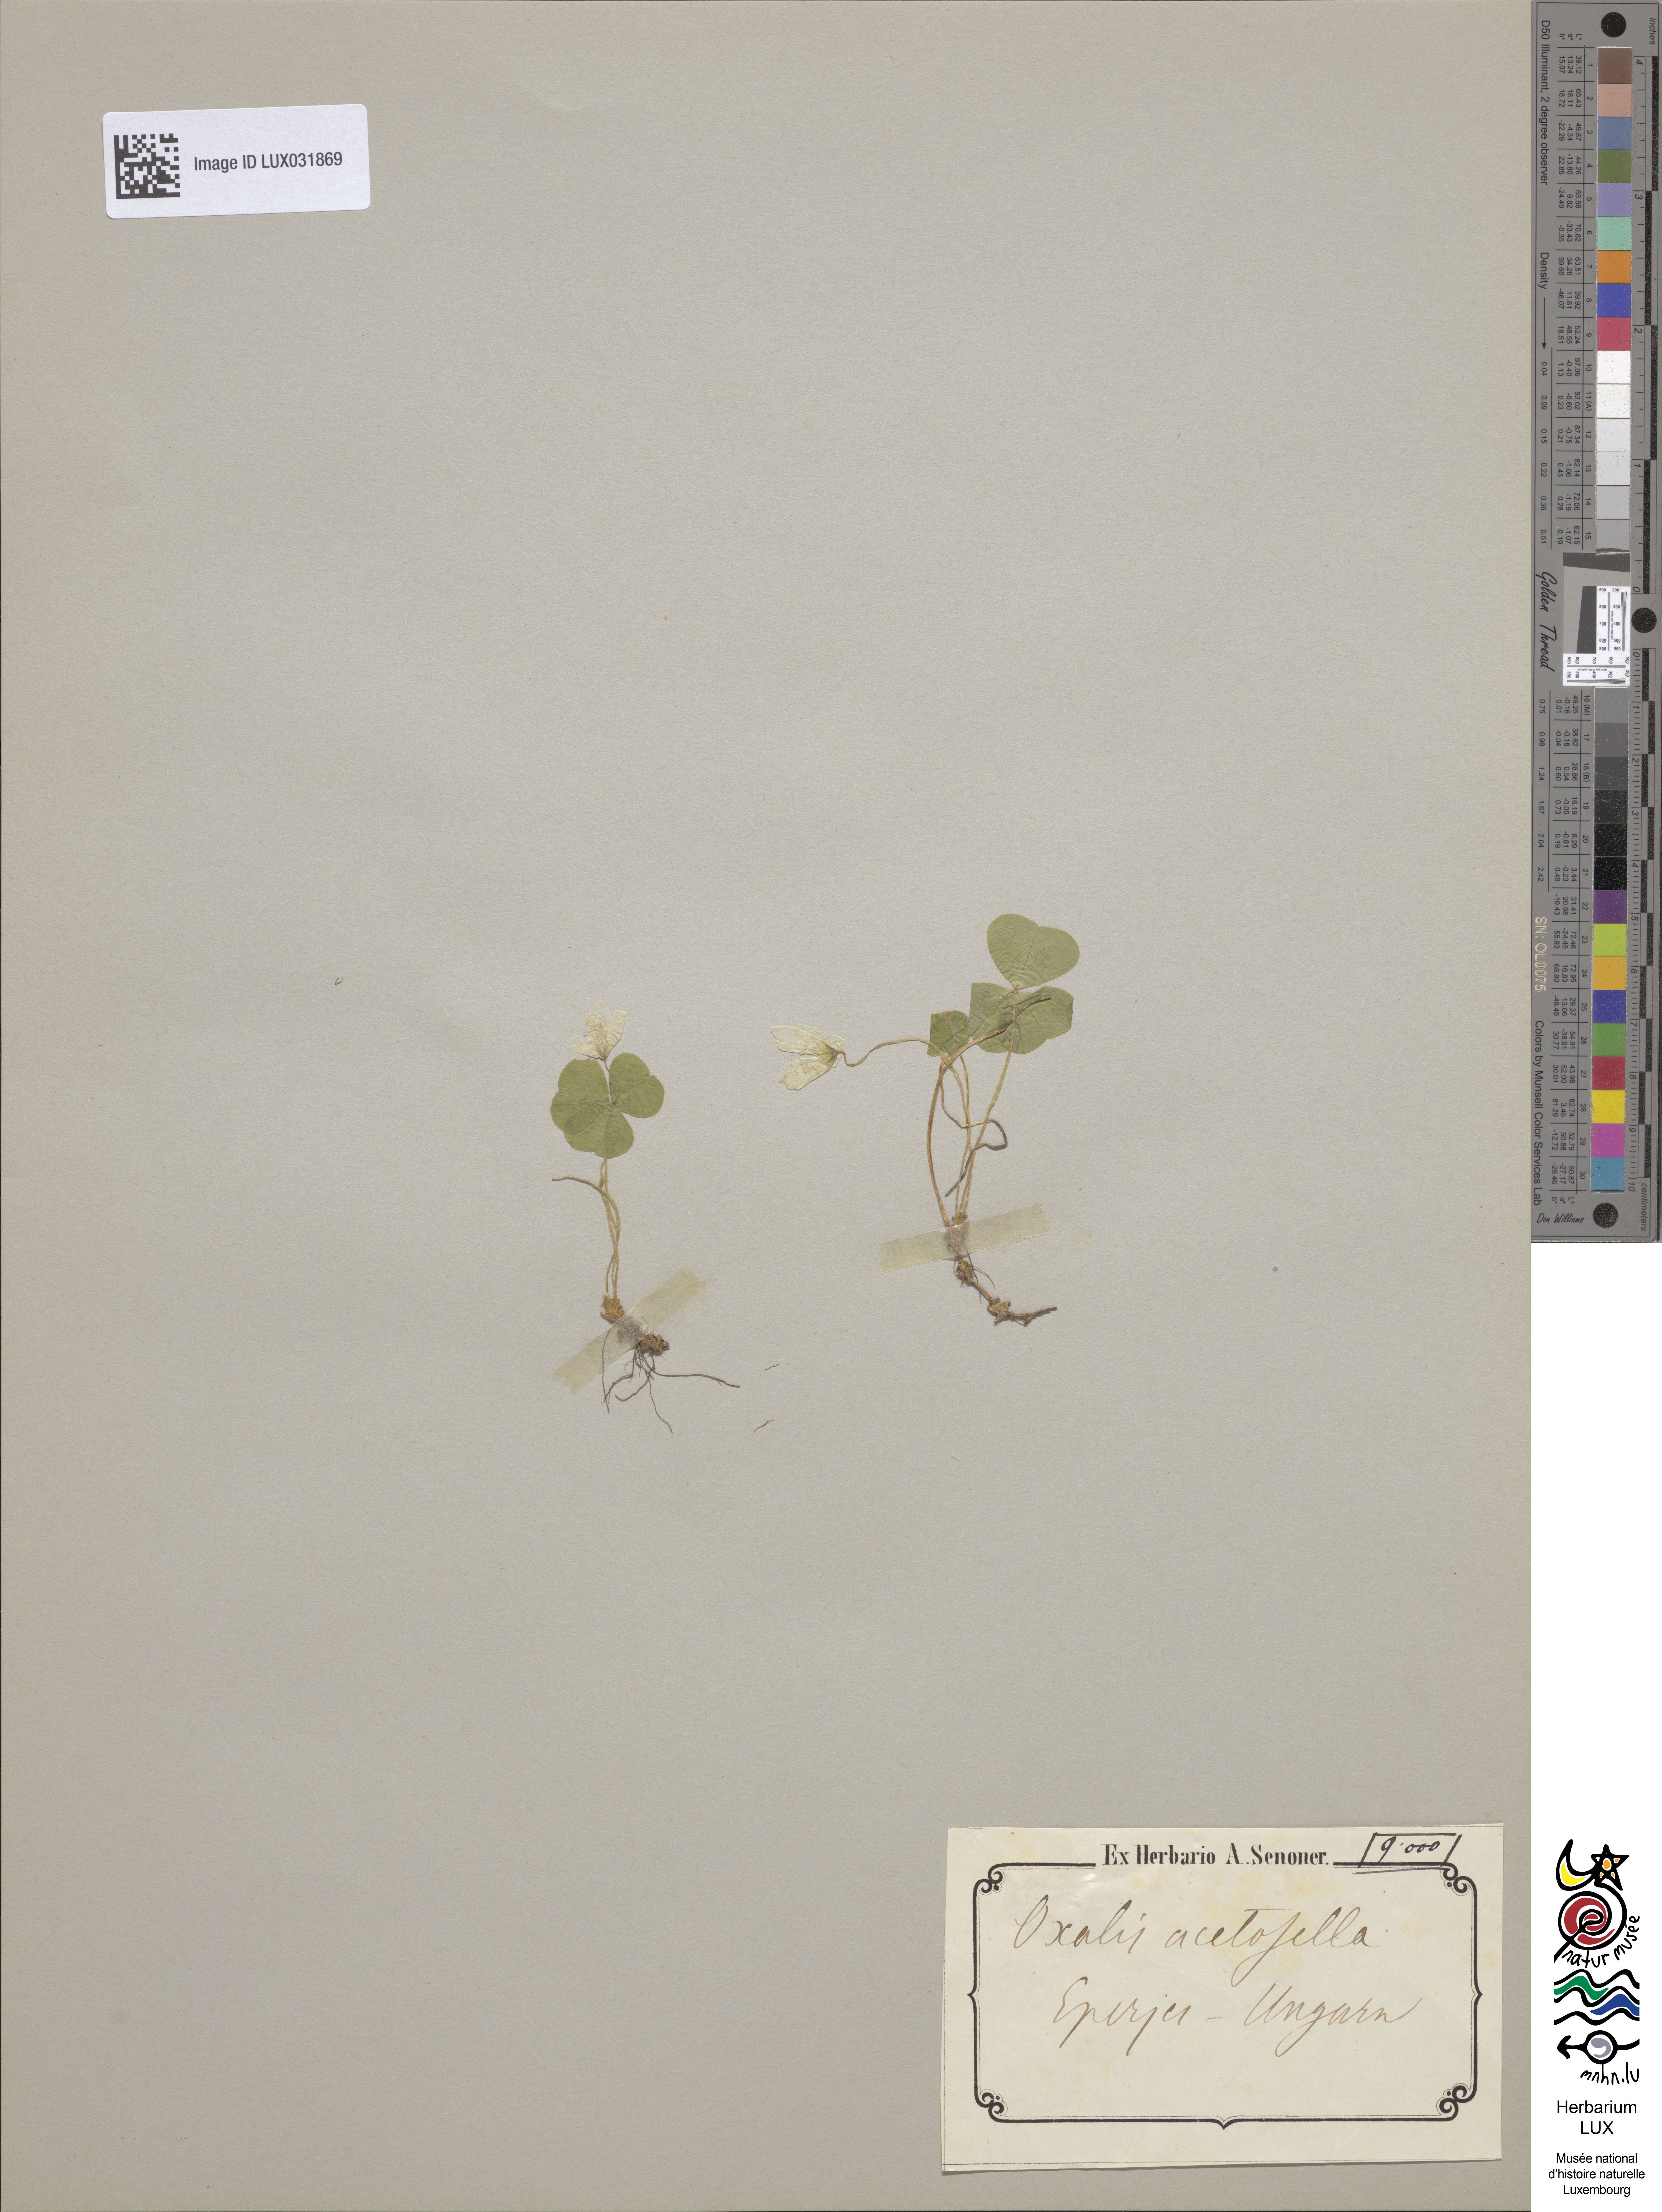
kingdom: Plantae
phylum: Tracheophyta
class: Magnoliopsida
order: Oxalidales
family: Oxalidaceae
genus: Oxalis
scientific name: Oxalis acetosella
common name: Wood-sorrel
